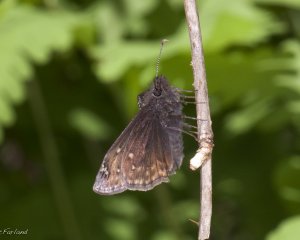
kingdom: Animalia
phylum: Arthropoda
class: Insecta
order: Lepidoptera
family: Hesperiidae
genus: Gesta
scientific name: Gesta
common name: Juvenal's Duskywing
